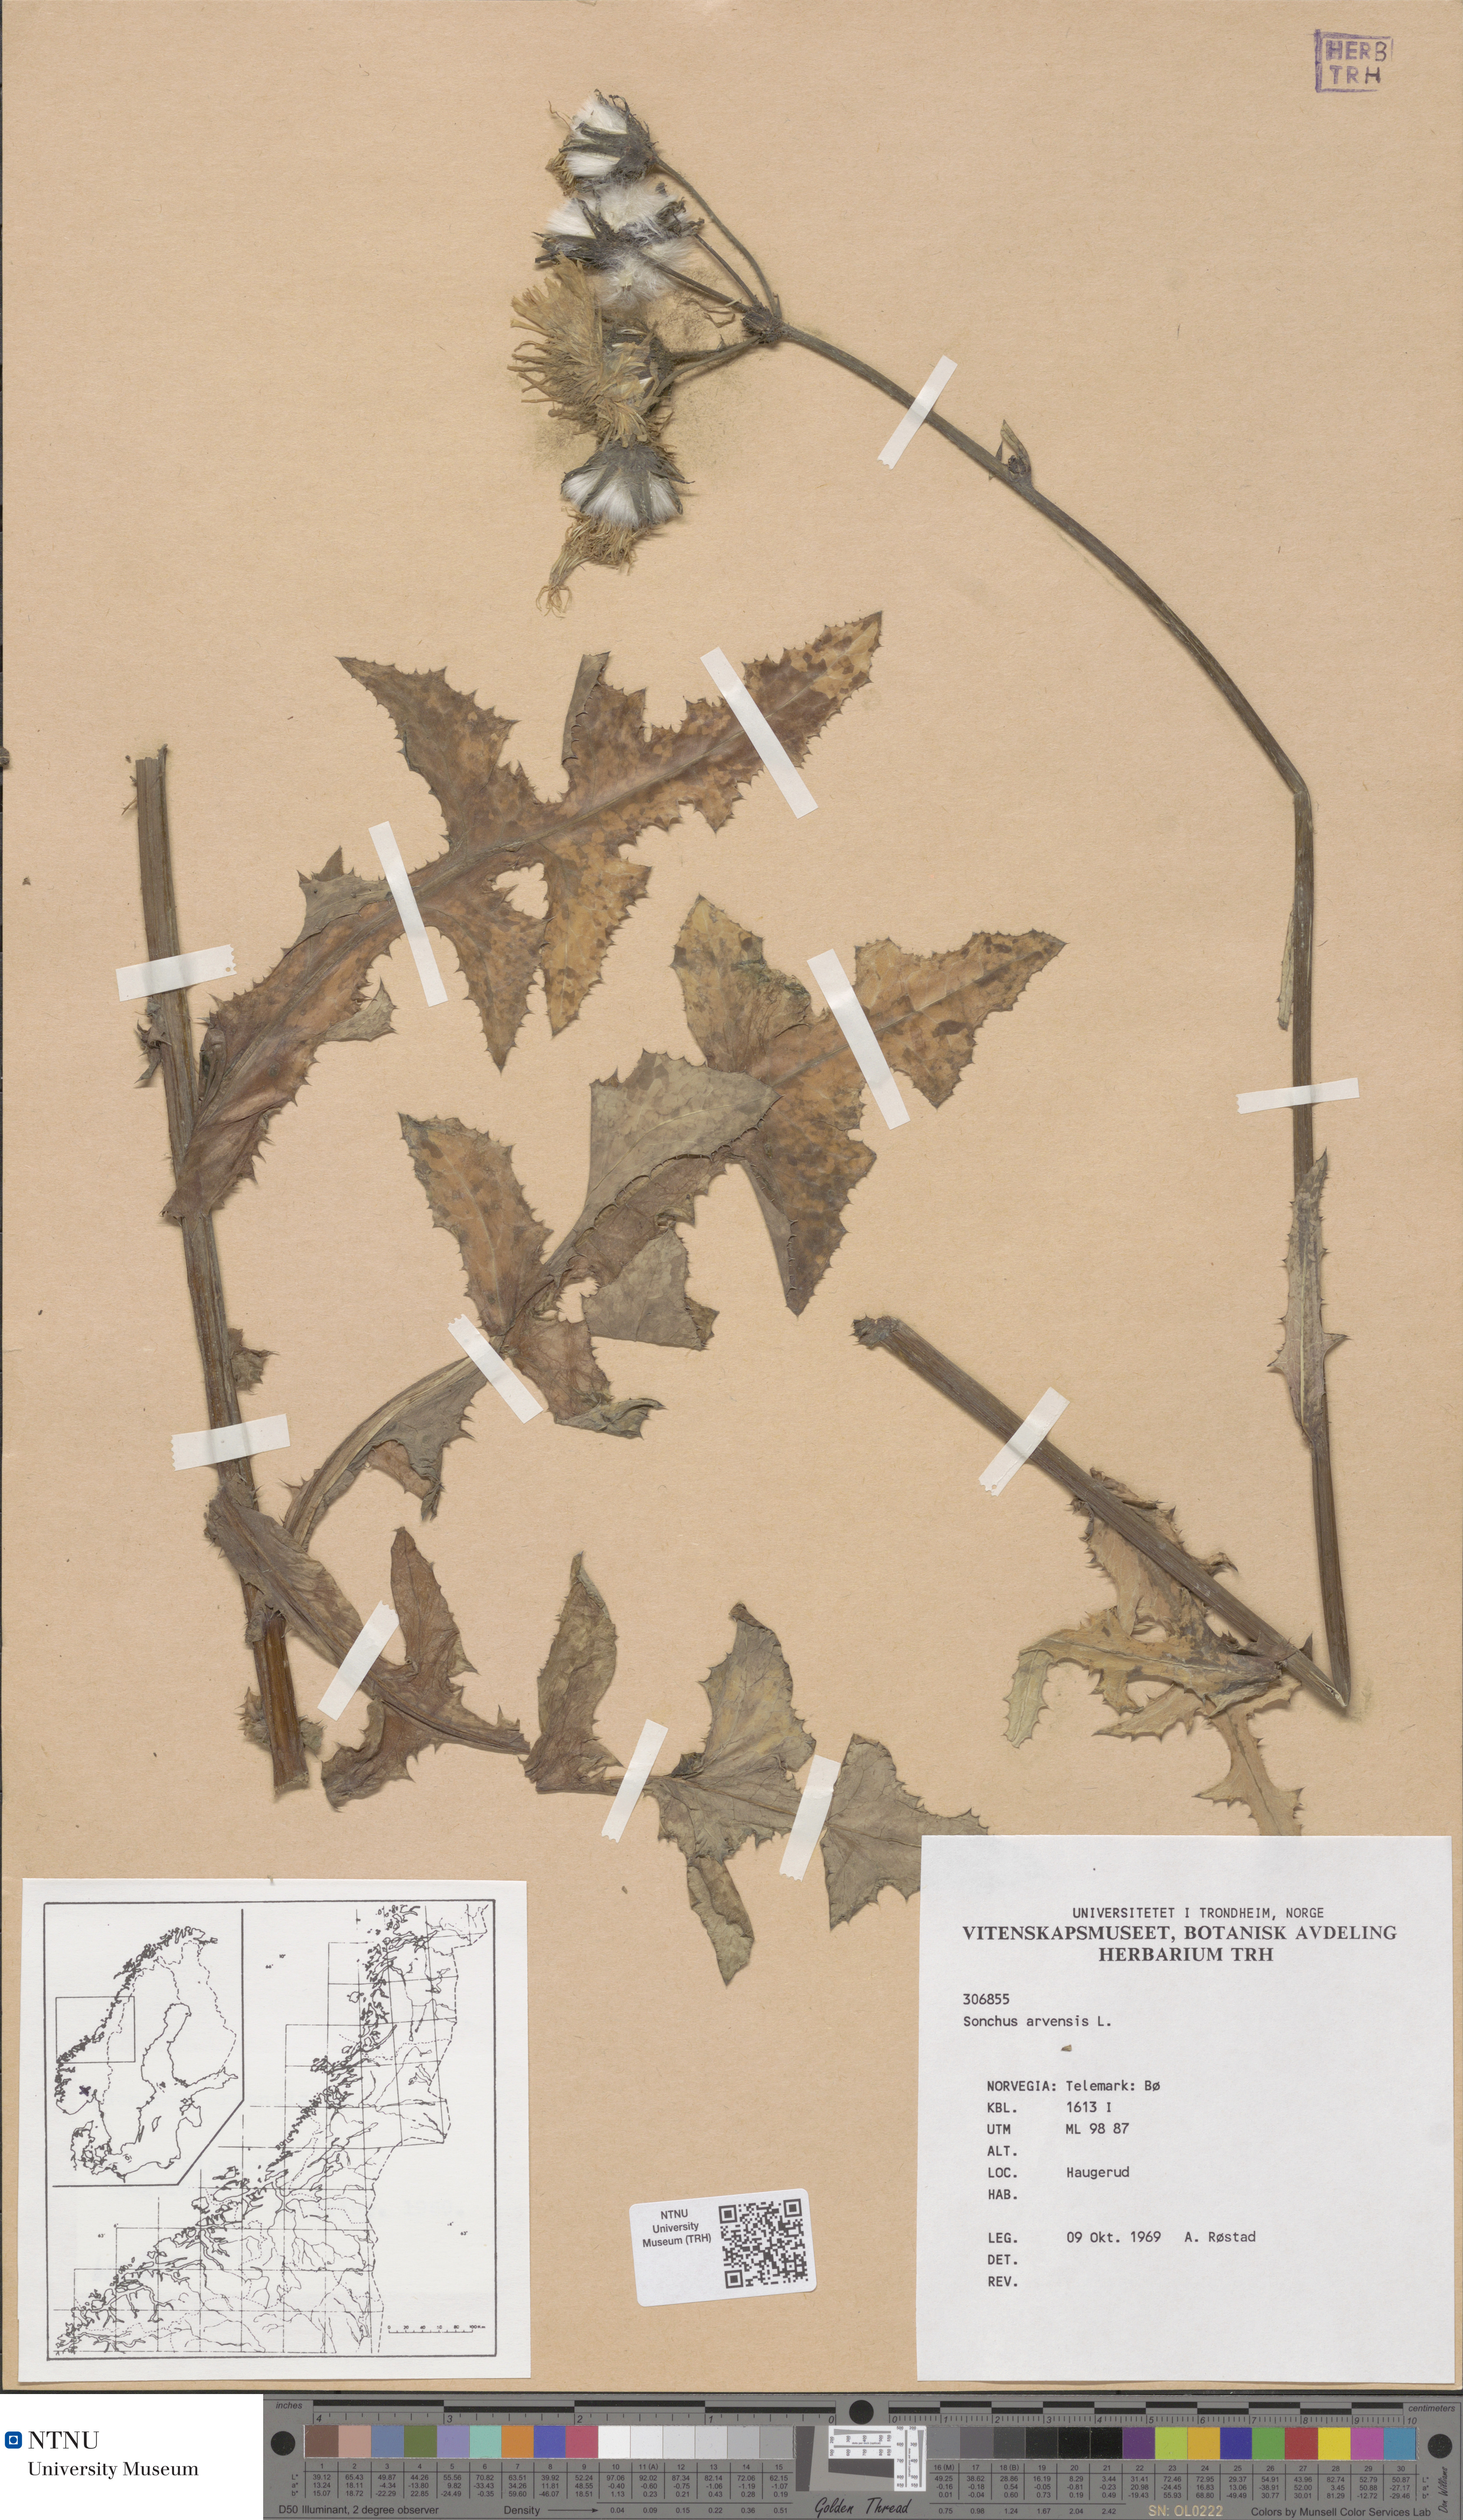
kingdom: Plantae
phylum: Tracheophyta
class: Magnoliopsida
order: Asterales
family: Asteraceae
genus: Sonchus
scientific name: Sonchus arvensis
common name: Perennial sow-thistle
